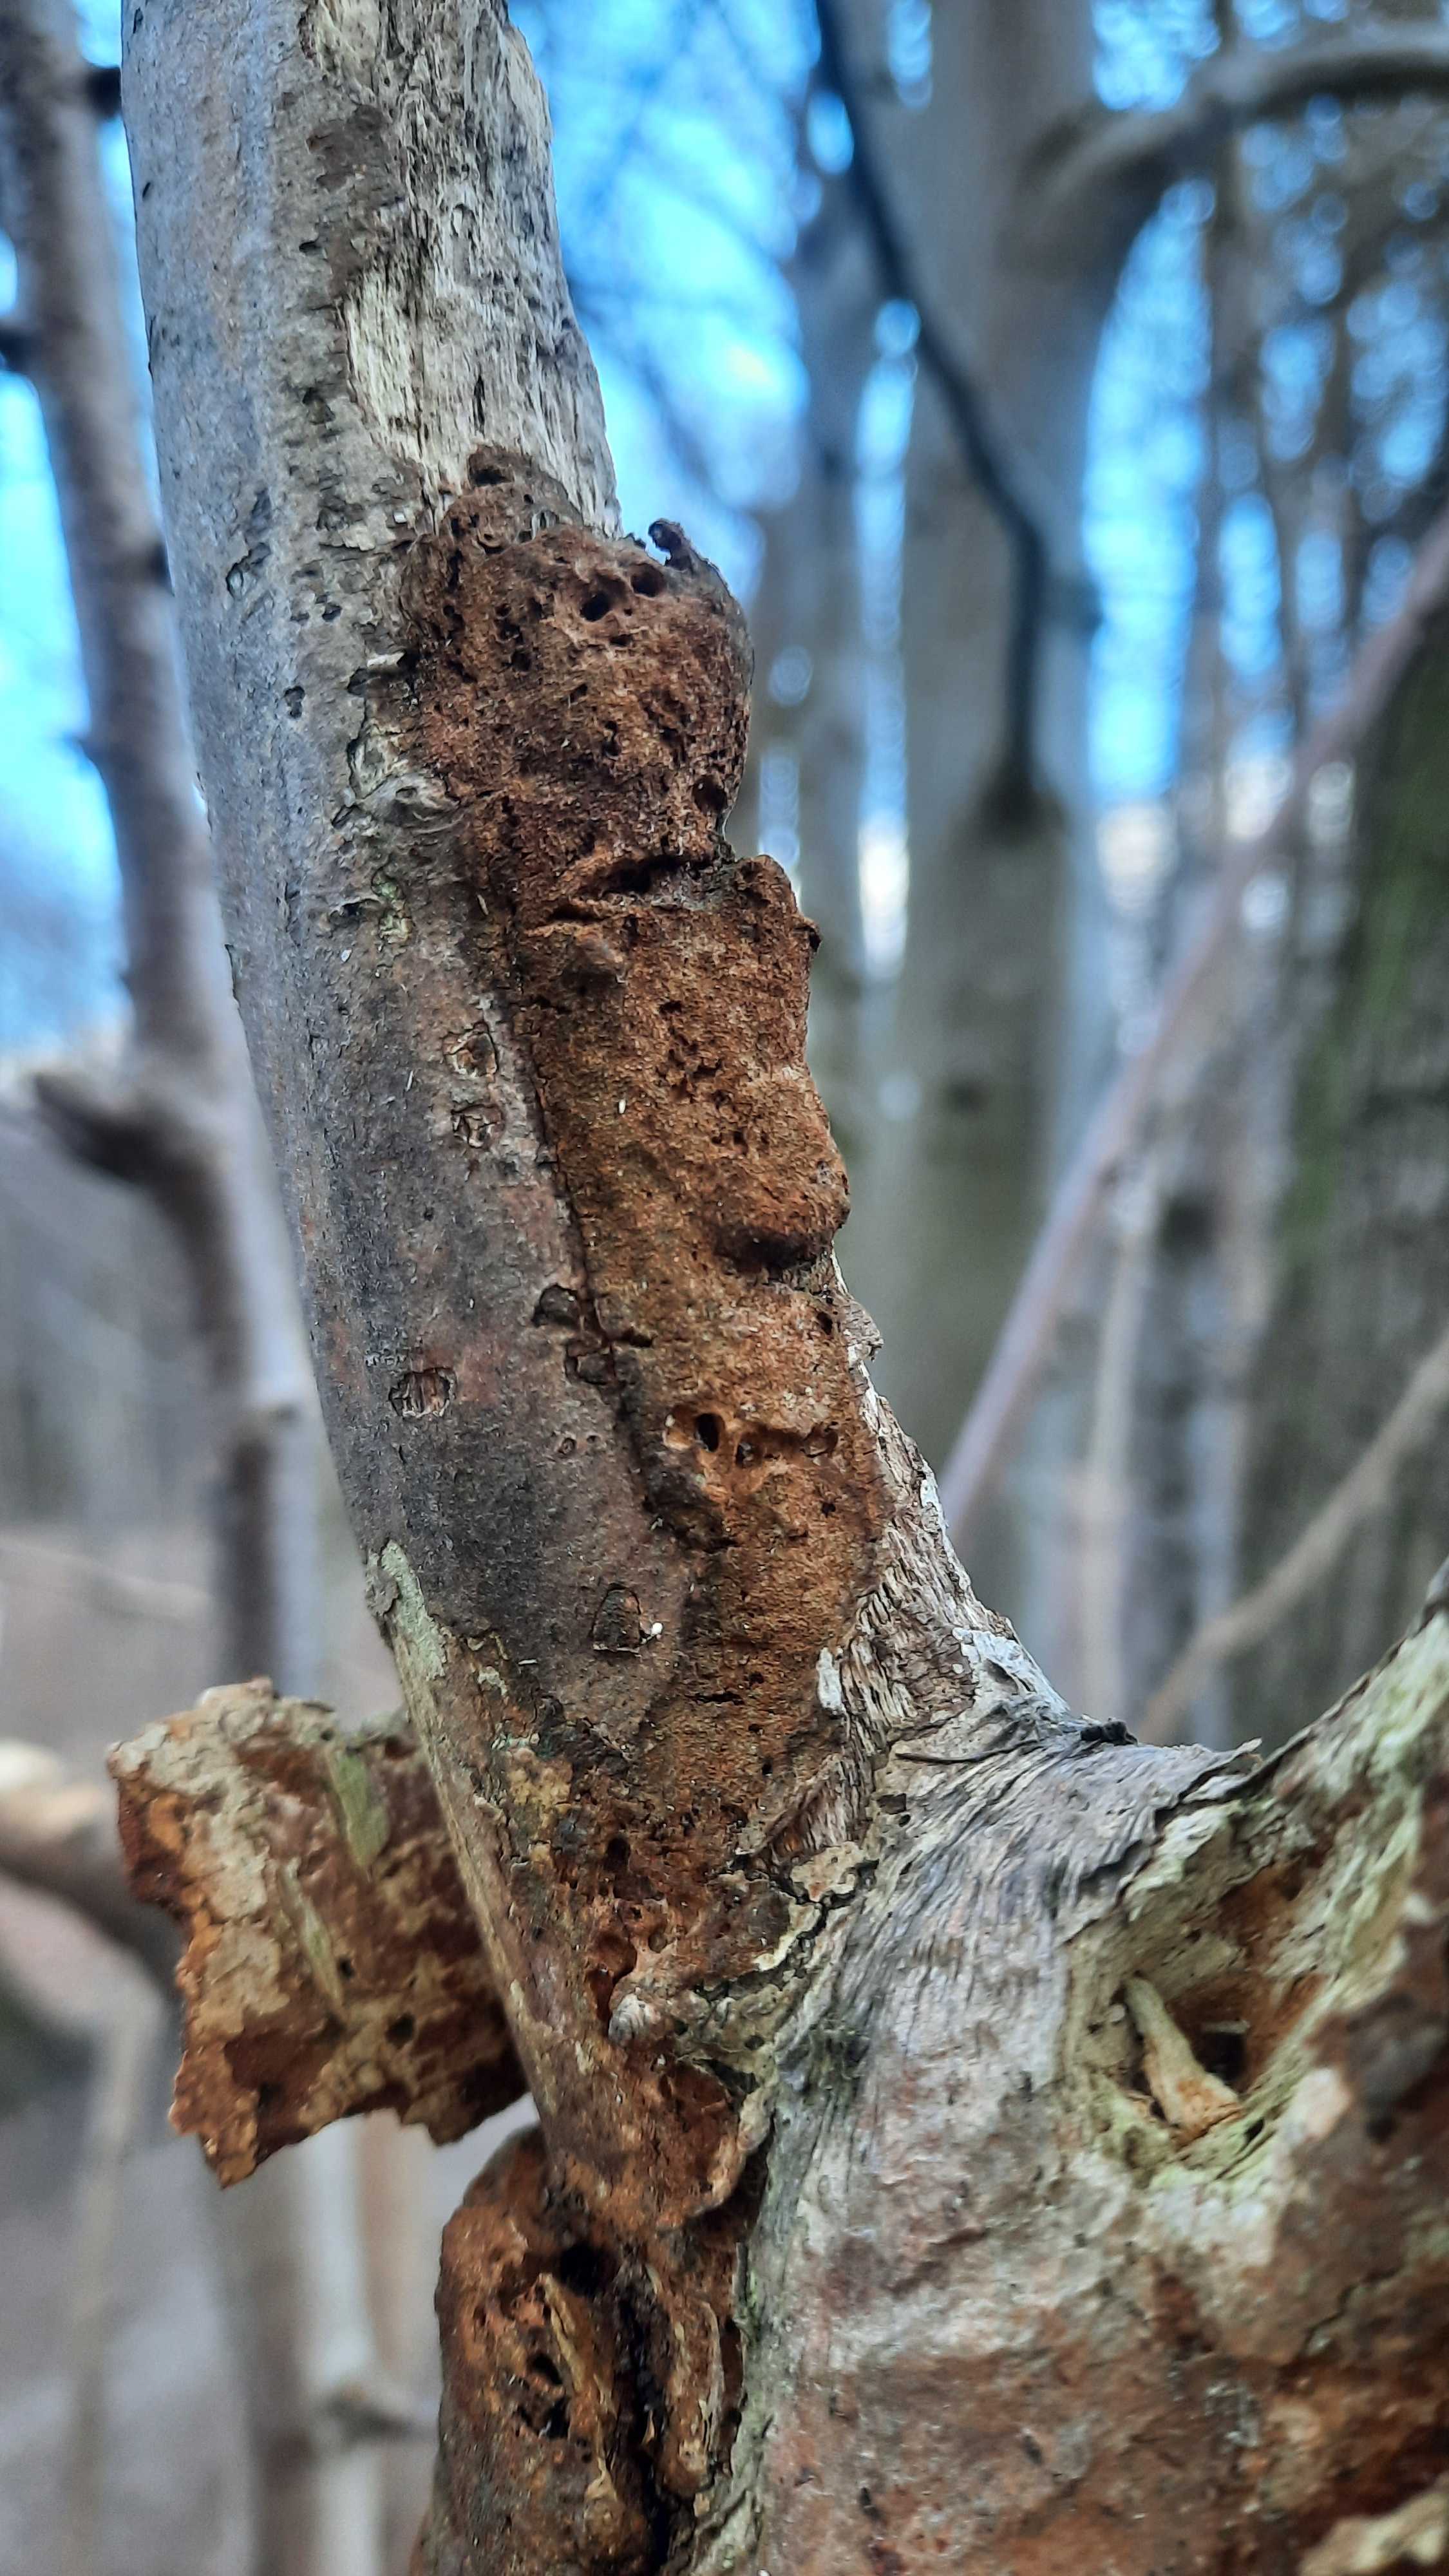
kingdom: Fungi
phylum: Basidiomycota
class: Agaricomycetes
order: Hymenochaetales
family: Hymenochaetaceae
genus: Fuscoporia
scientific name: Fuscoporia
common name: Ildporesvamp
